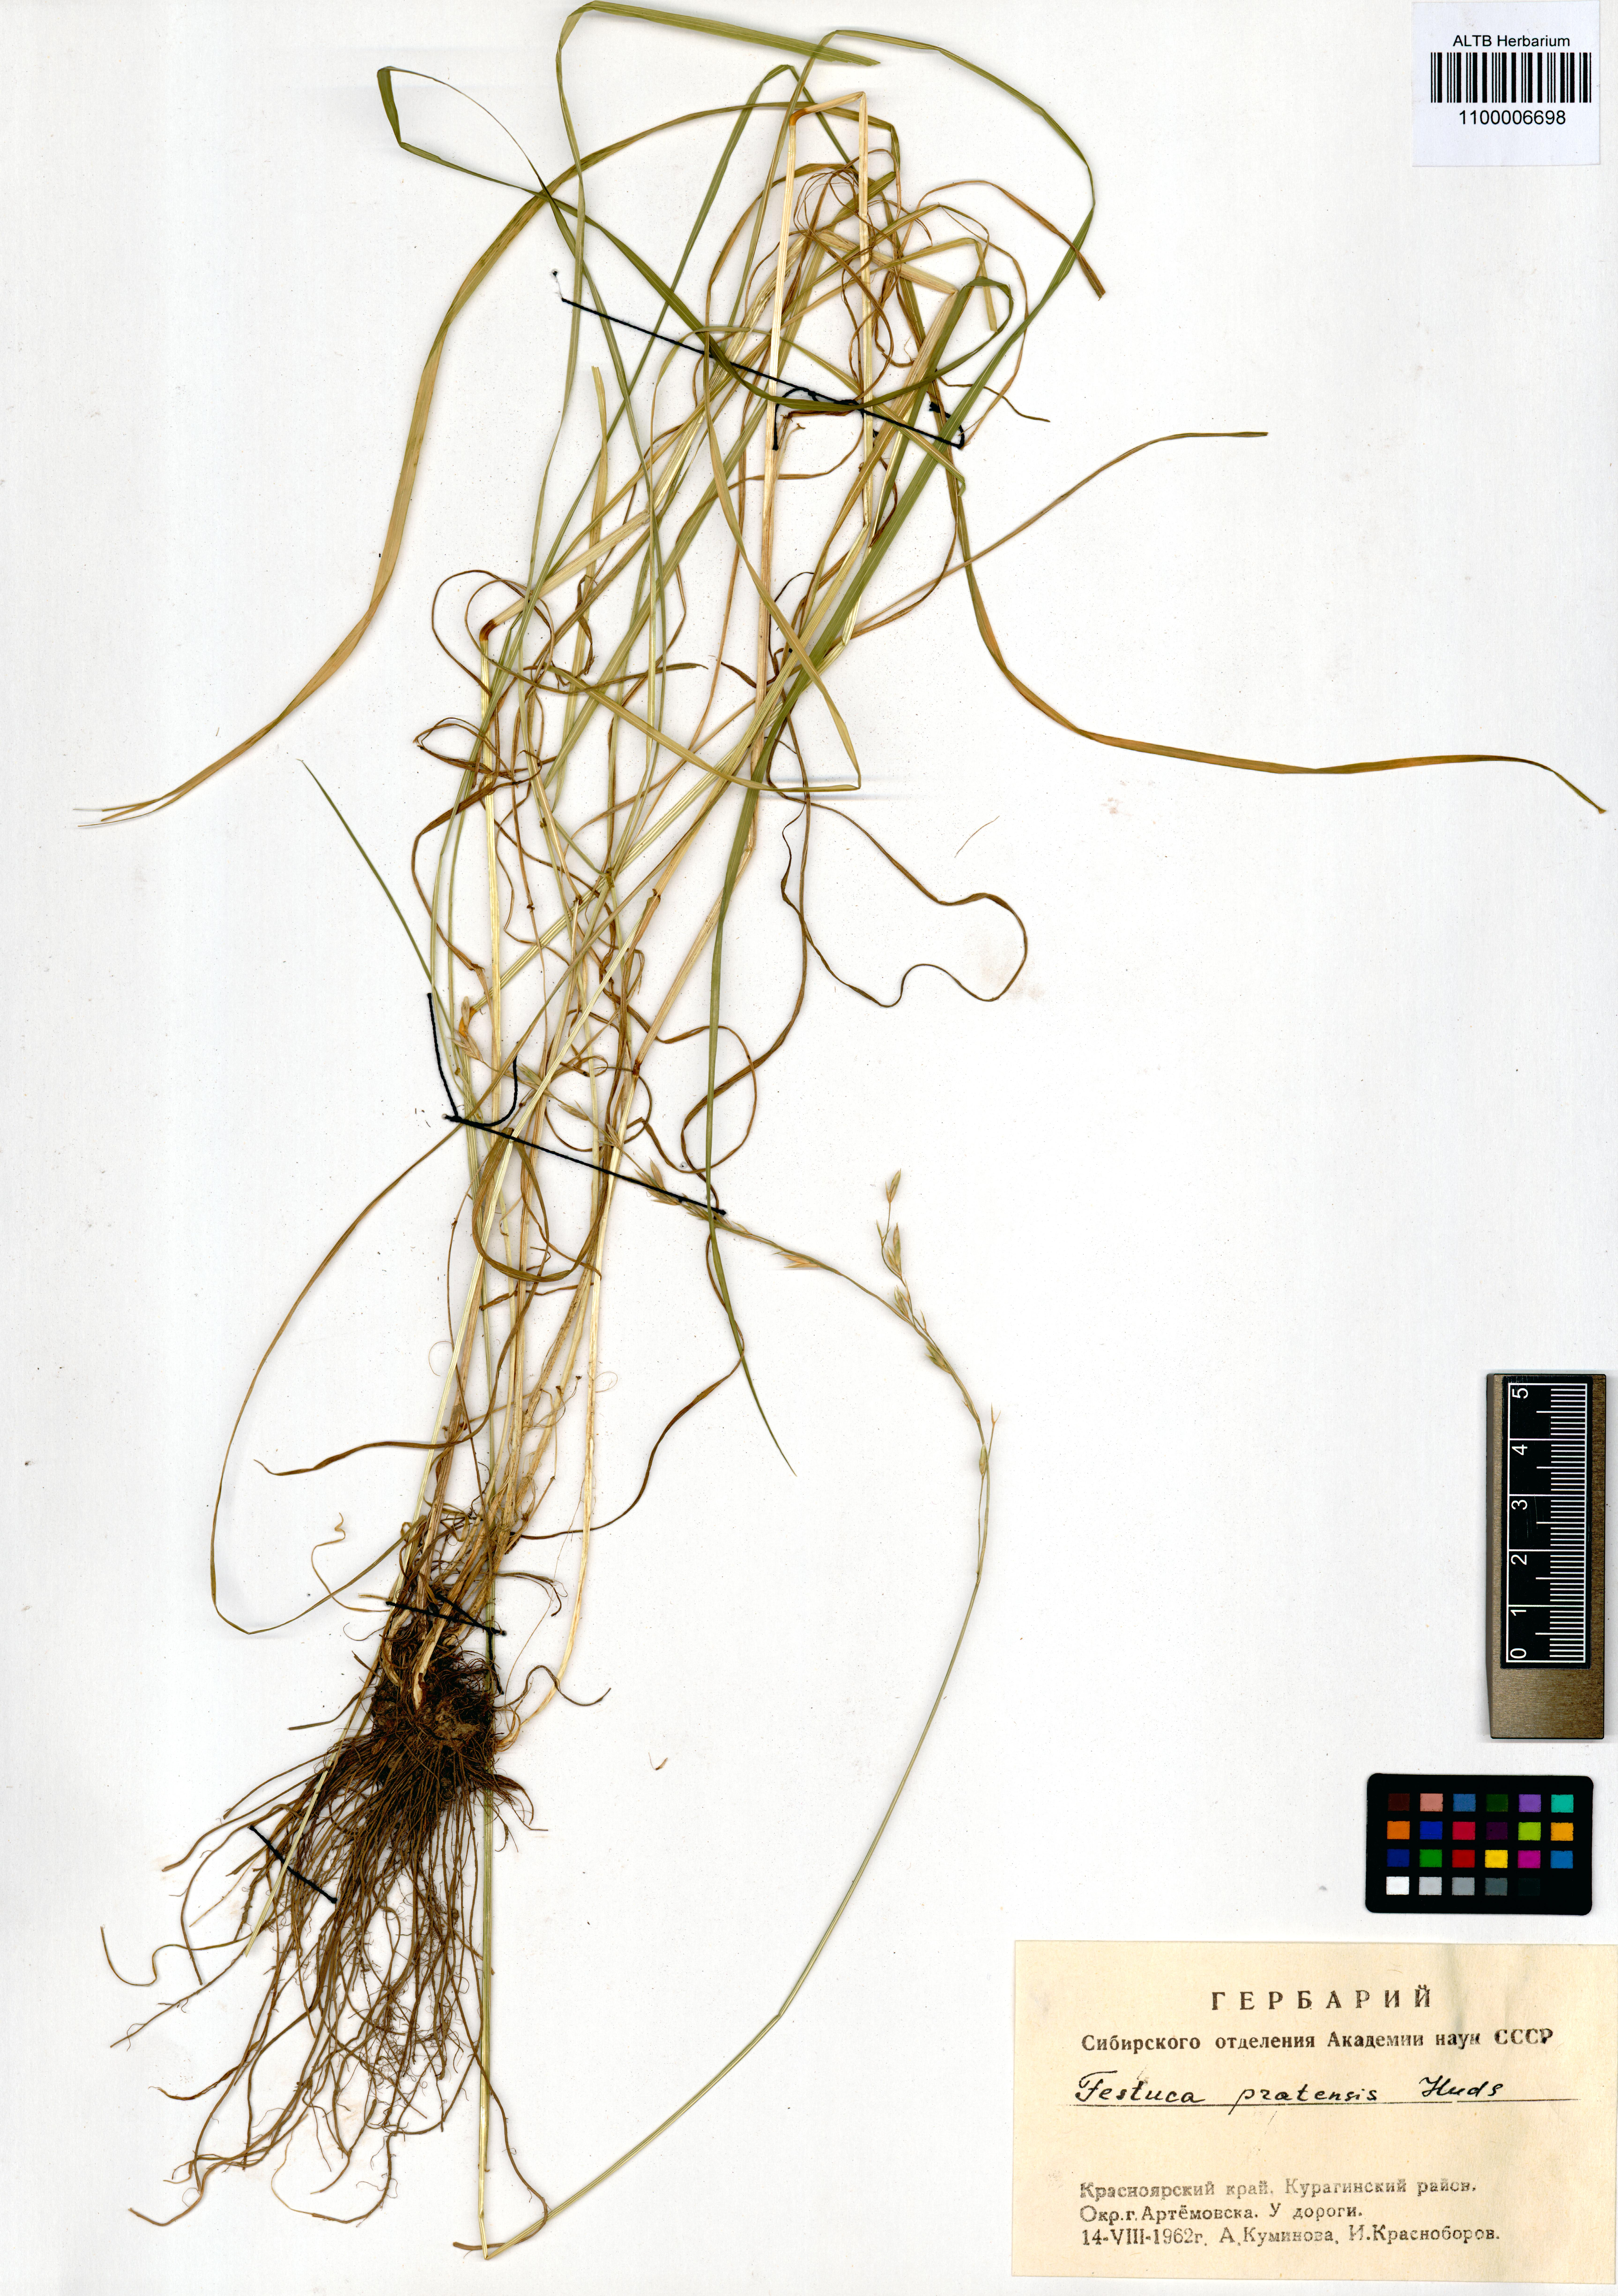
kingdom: Plantae
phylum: Tracheophyta
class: Liliopsida
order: Poales
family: Poaceae
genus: Lolium
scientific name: Lolium pratense
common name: Dover grass
